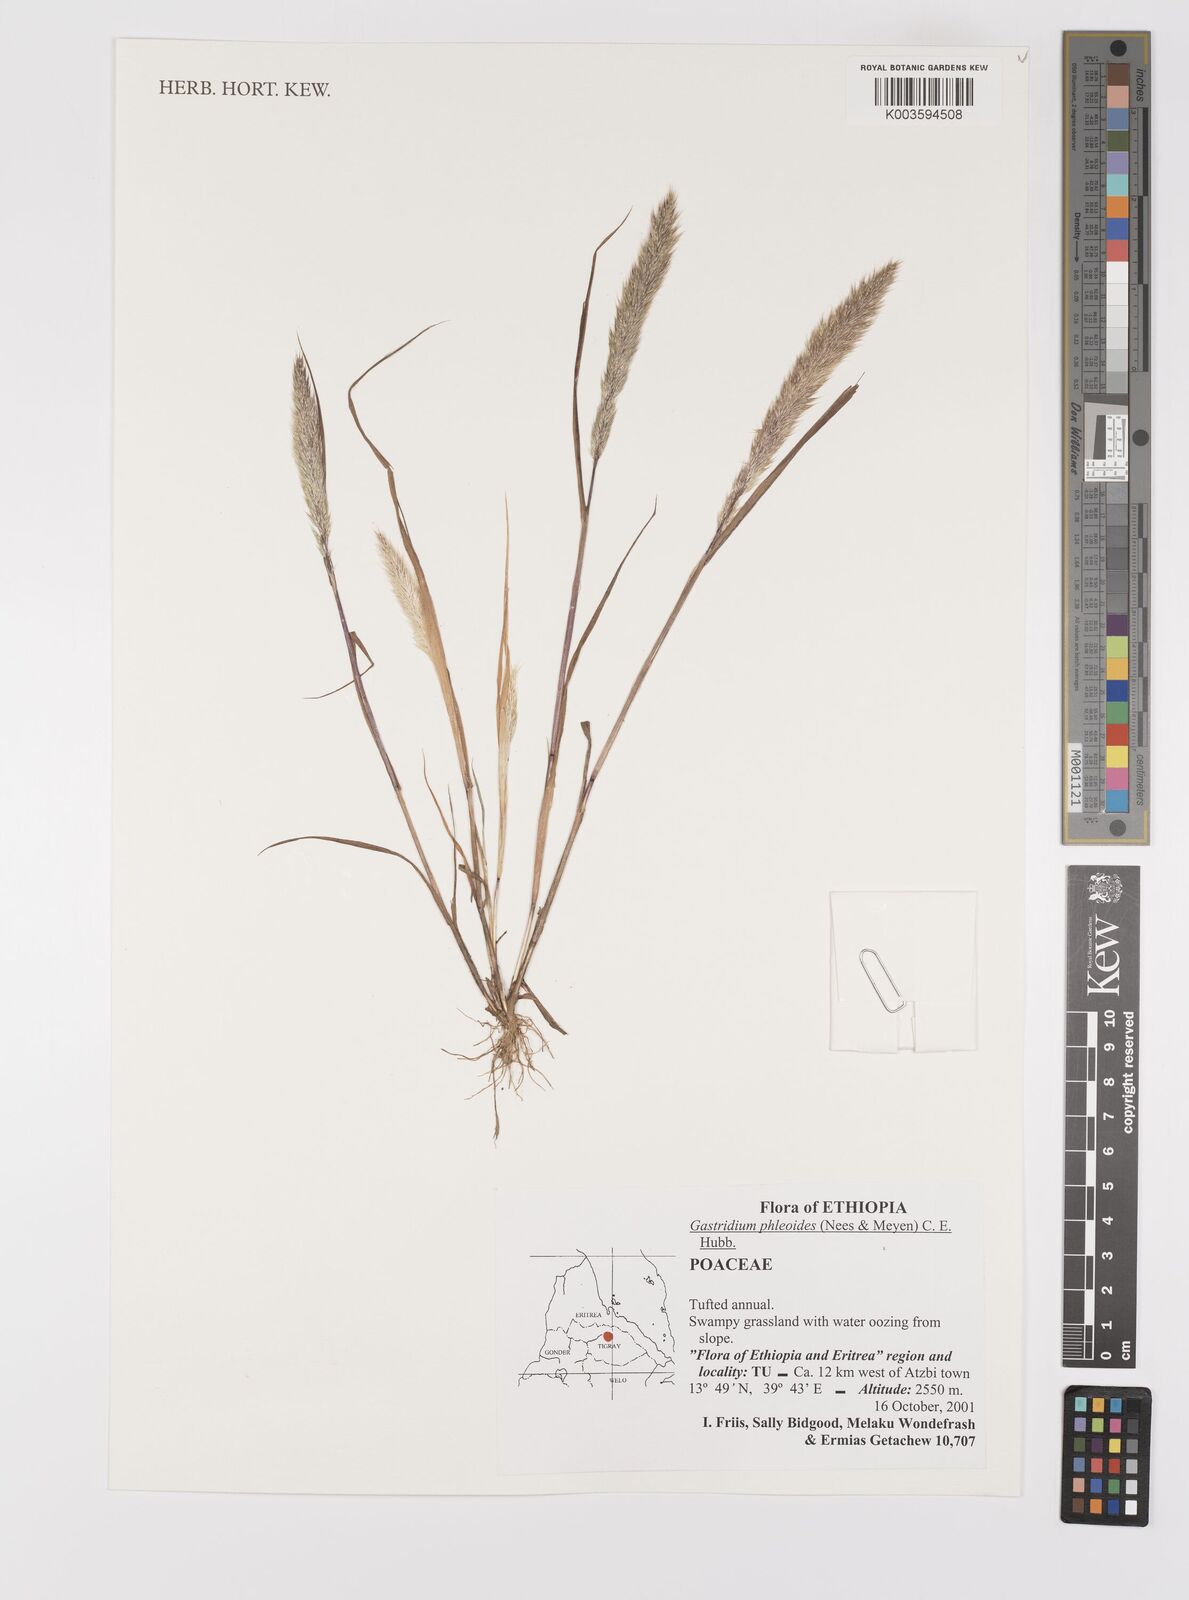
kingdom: Plantae
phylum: Tracheophyta
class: Liliopsida
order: Poales
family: Poaceae
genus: Gastridium
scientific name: Gastridium phleoides
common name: Nit grass
